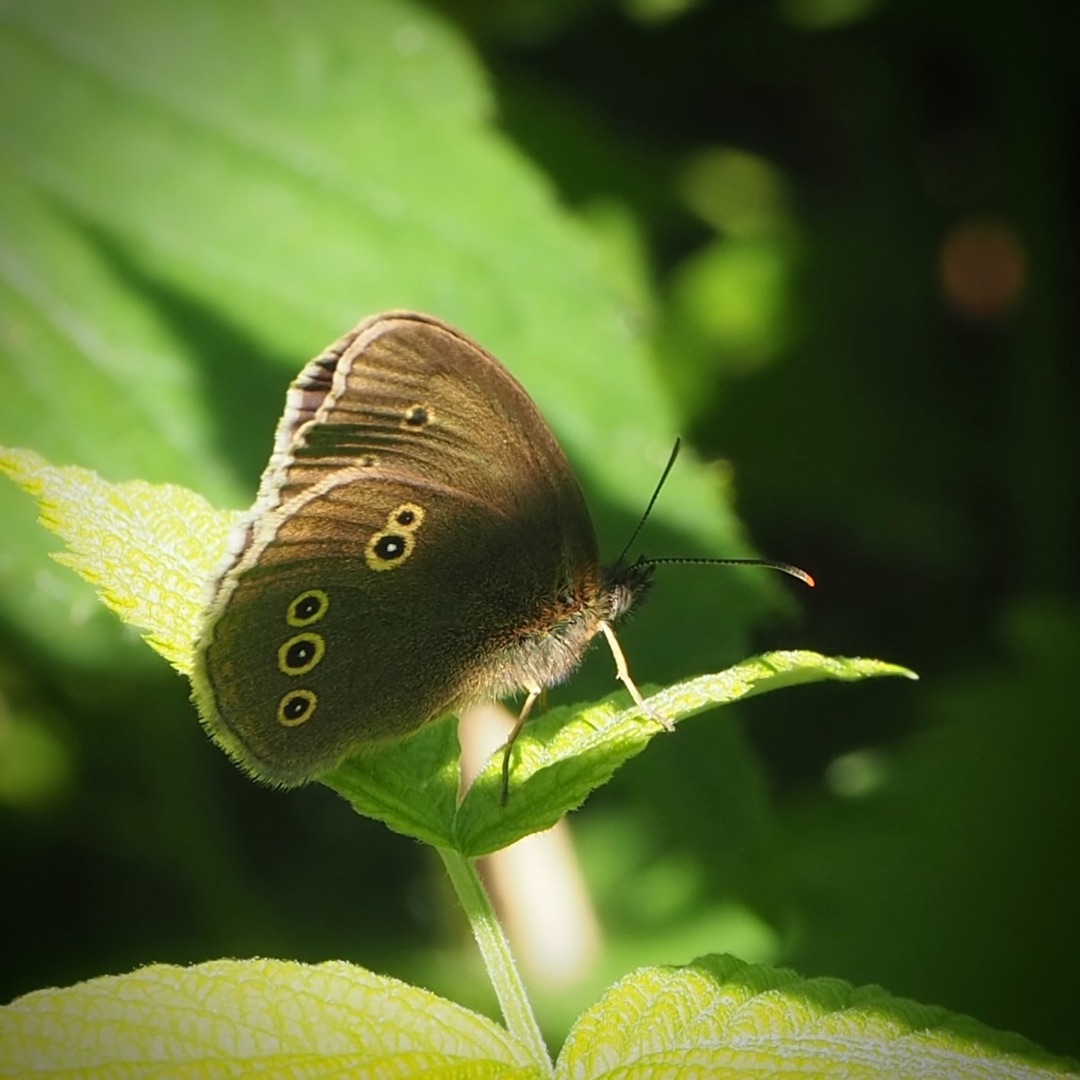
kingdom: Animalia
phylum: Arthropoda
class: Insecta
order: Lepidoptera
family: Nymphalidae
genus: Aphantopus
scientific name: Aphantopus hyperantus
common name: Engrandøje
